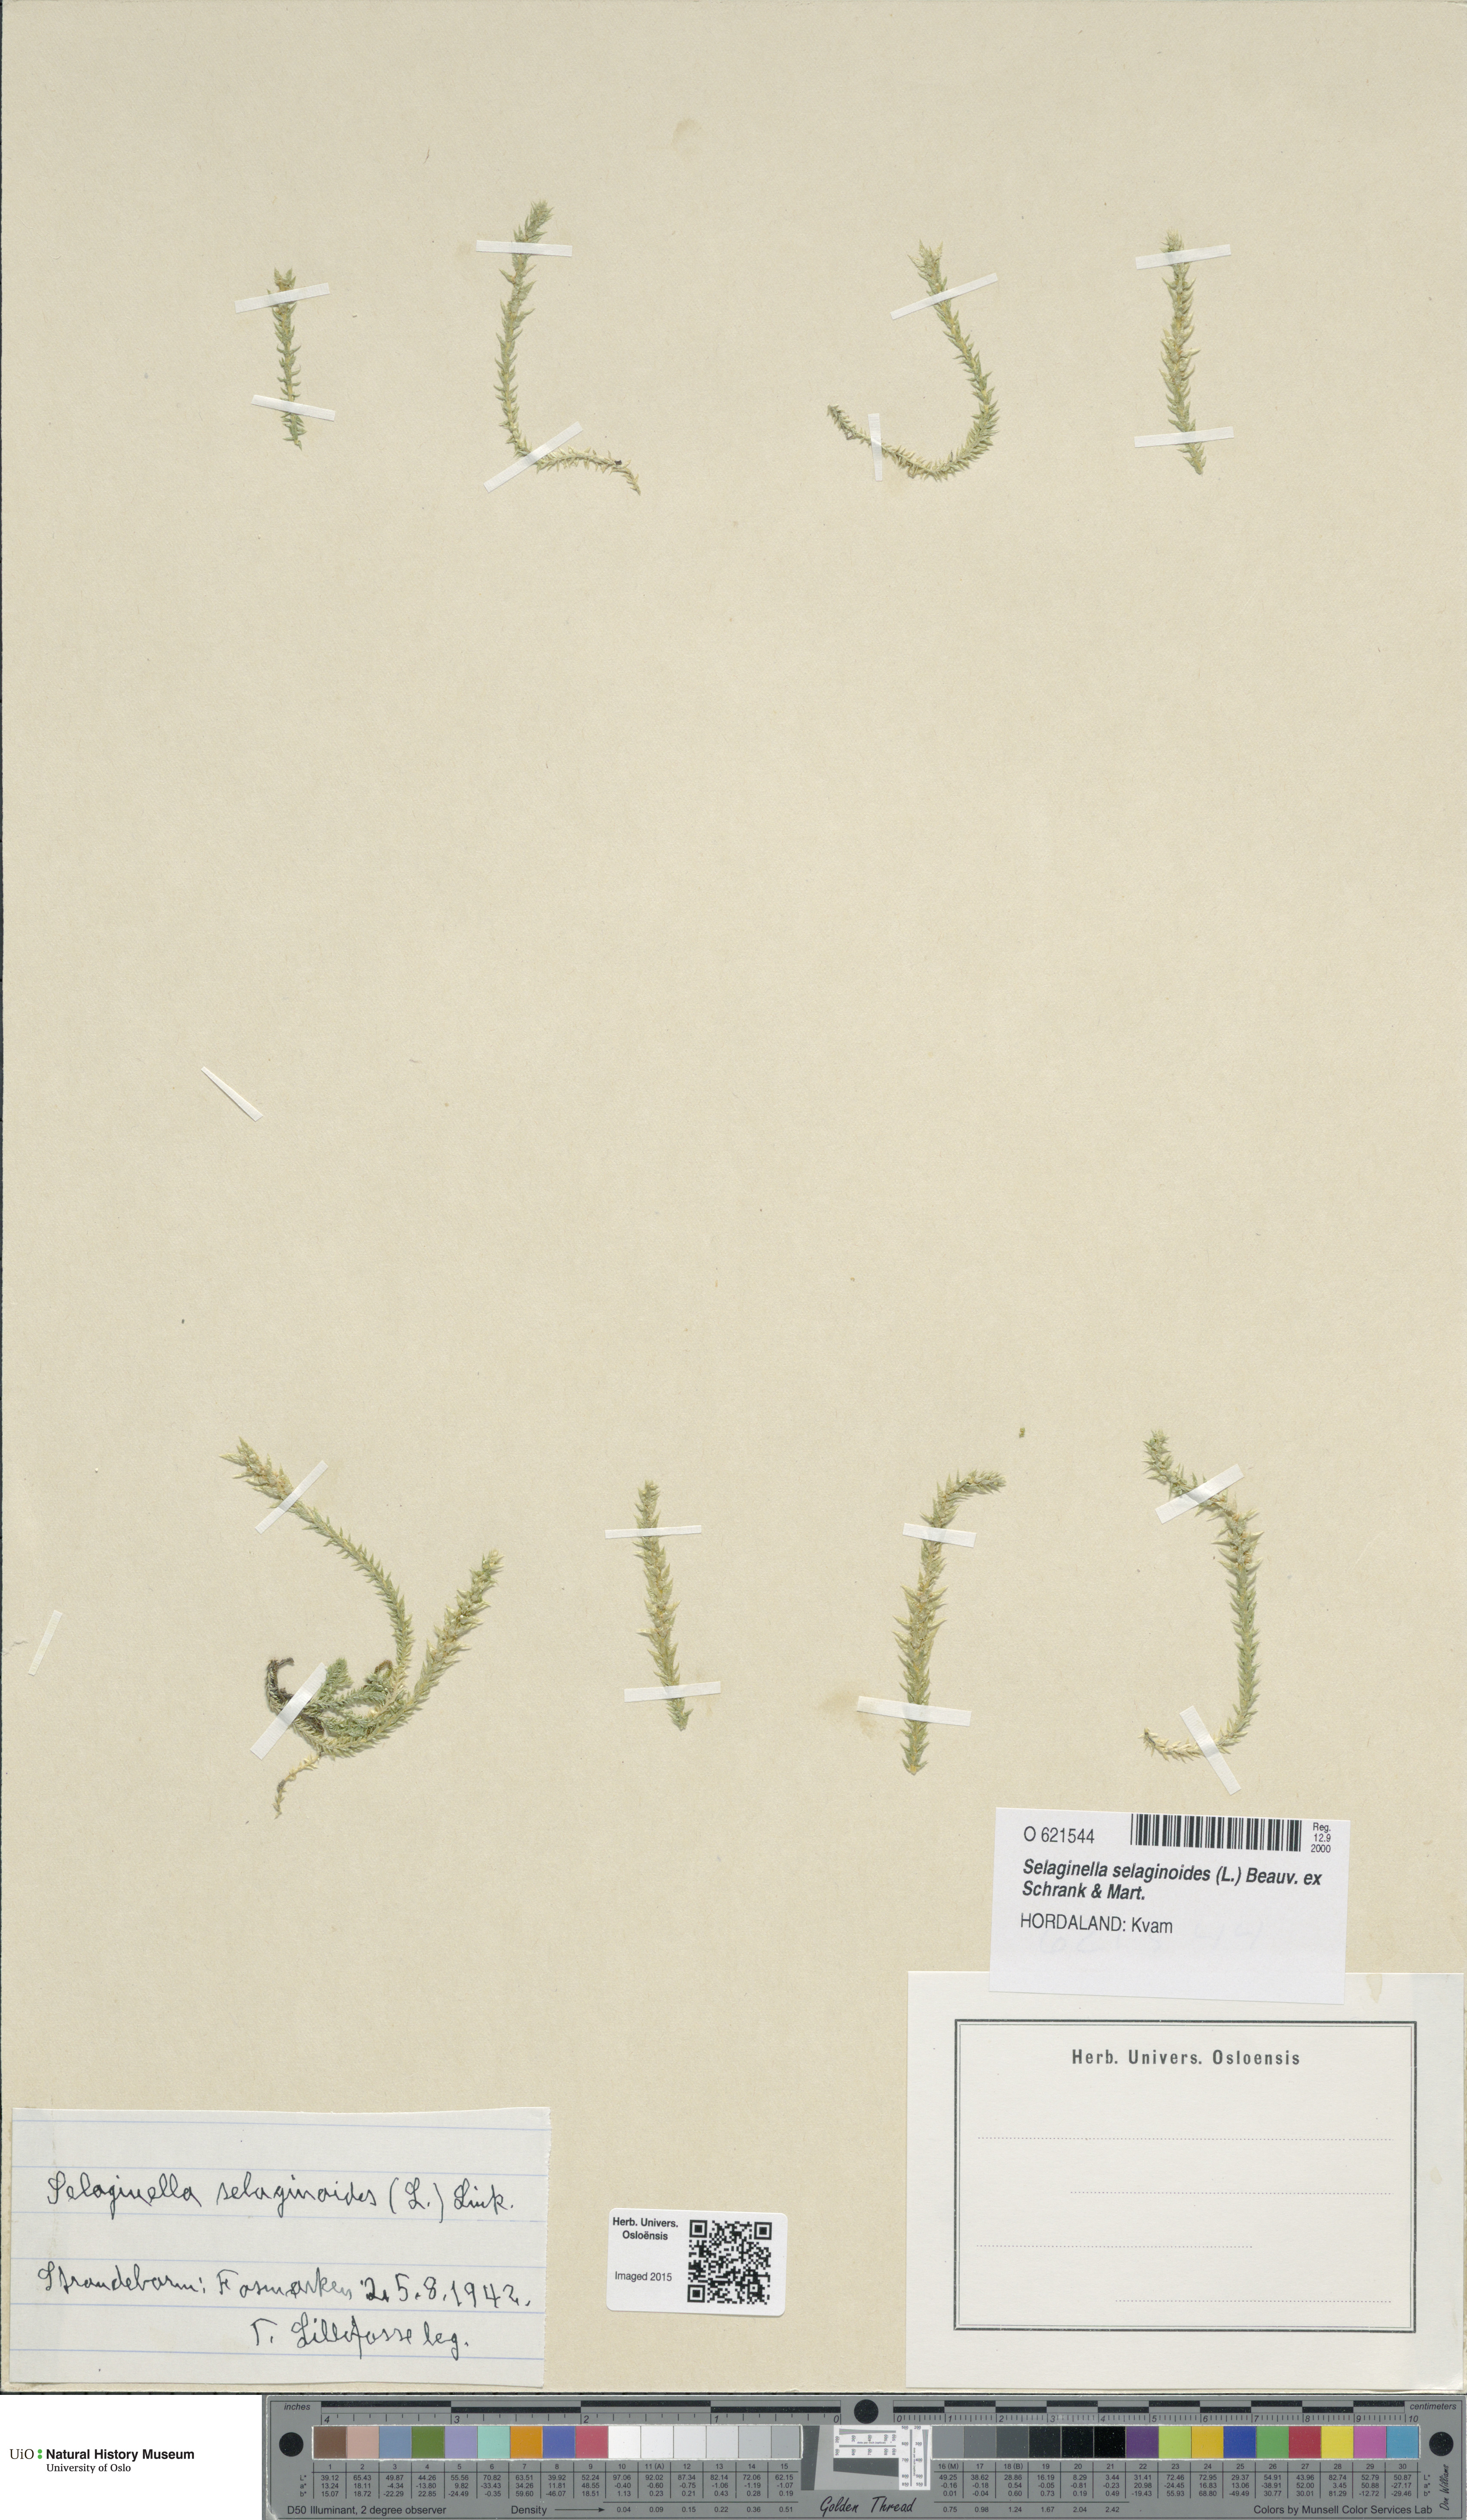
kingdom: Plantae
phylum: Tracheophyta
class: Lycopodiopsida
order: Selaginellales
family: Selaginellaceae
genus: Selaginella
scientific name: Selaginella selaginoides
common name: Prickly mountain-moss
